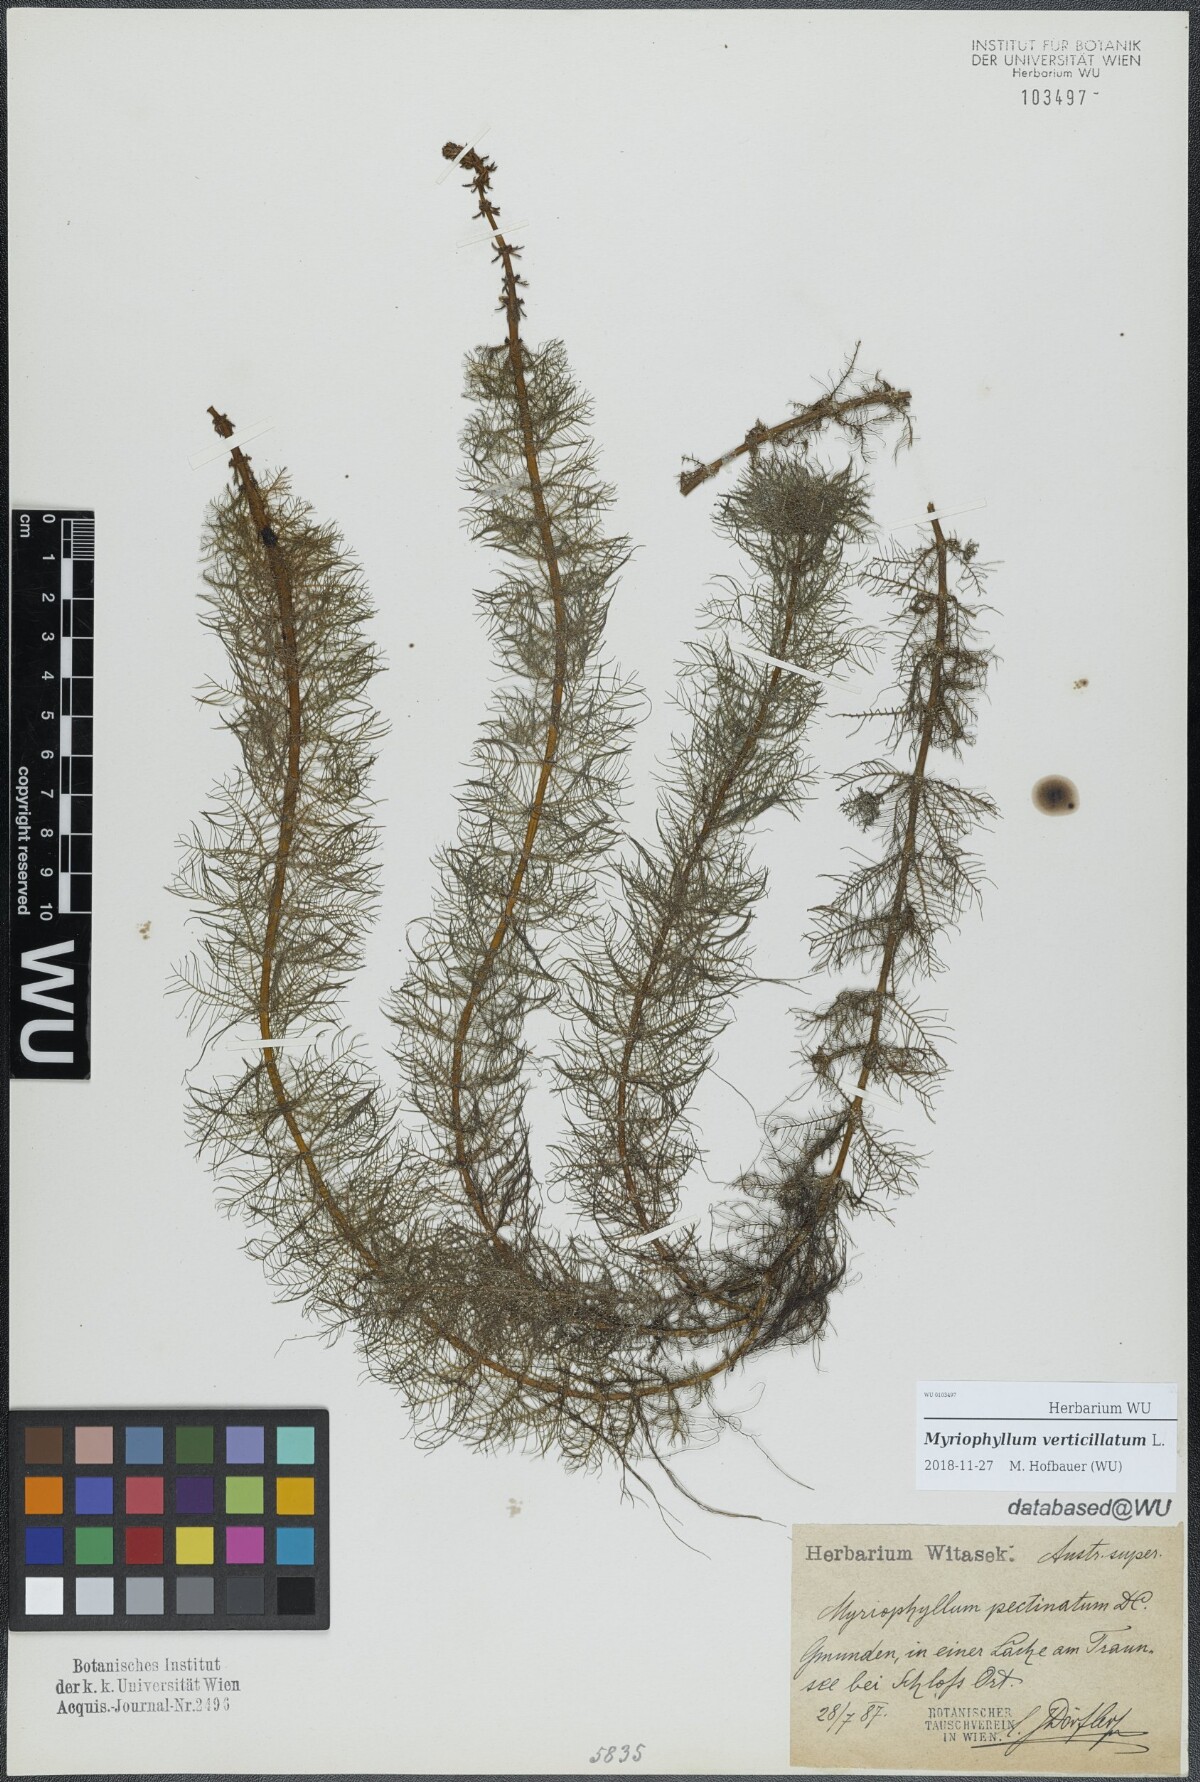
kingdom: Plantae
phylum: Tracheophyta
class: Magnoliopsida
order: Saxifragales
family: Haloragaceae
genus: Myriophyllum
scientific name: Myriophyllum verticillatum
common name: Whorled water-milfoil
